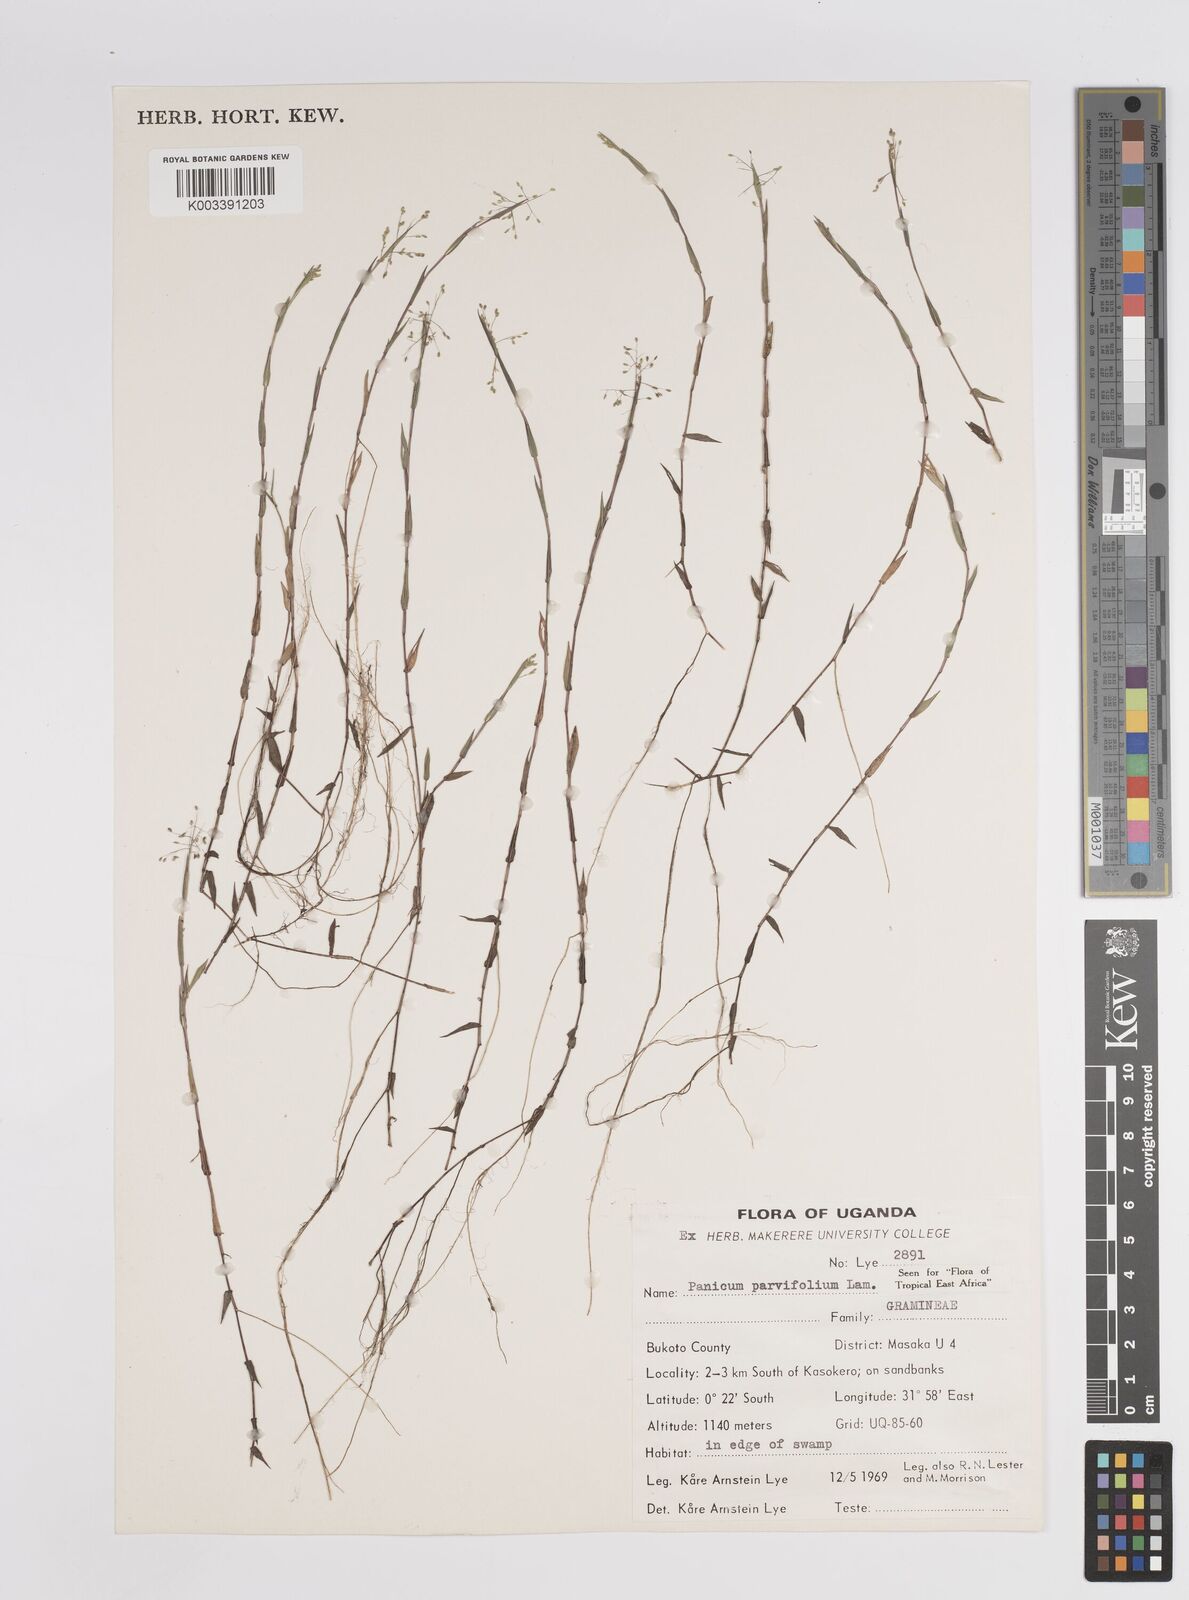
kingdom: Plantae
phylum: Tracheophyta
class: Liliopsida
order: Poales
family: Poaceae
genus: Trichanthecium
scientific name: Trichanthecium parvifolium
